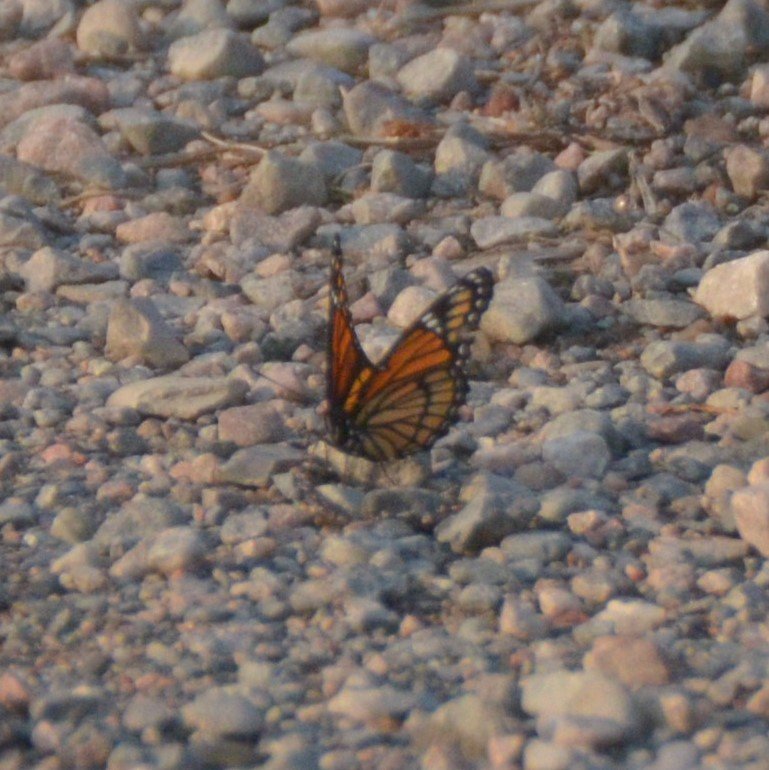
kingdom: Animalia
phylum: Arthropoda
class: Insecta
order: Lepidoptera
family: Nymphalidae
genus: Limenitis
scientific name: Limenitis archippus
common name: Viceroy
